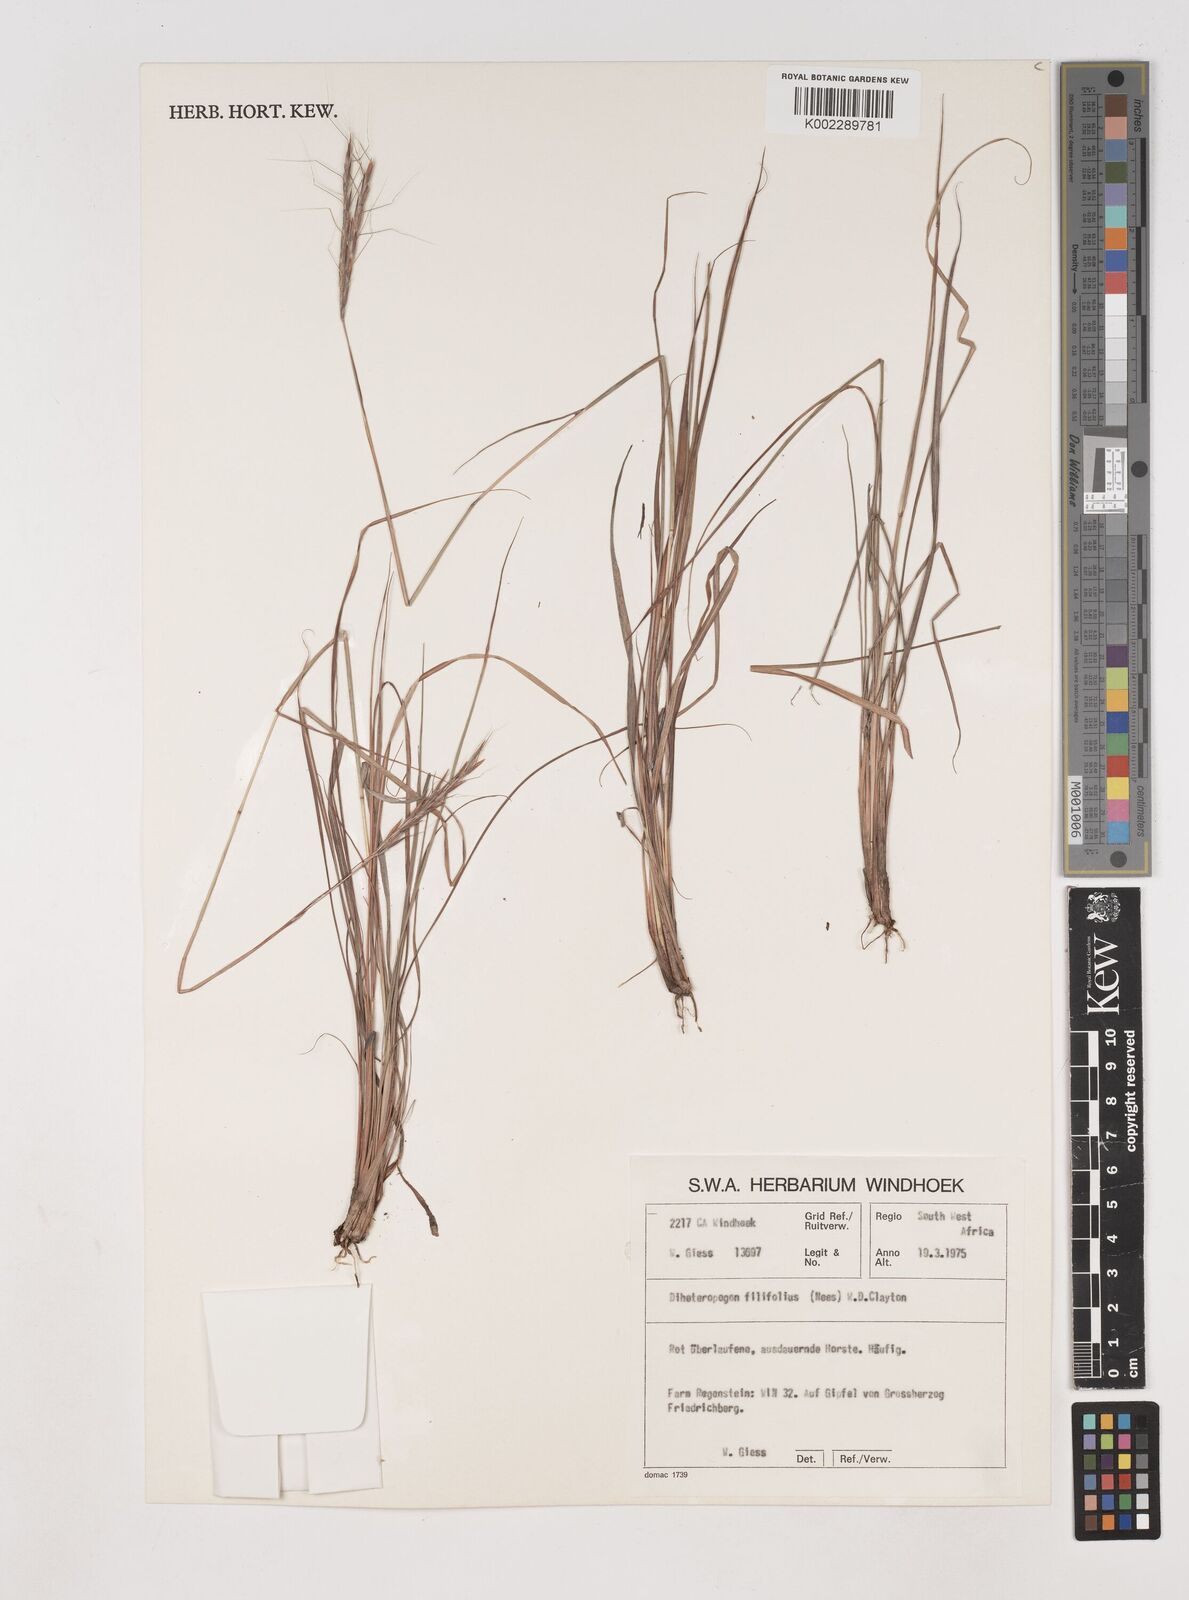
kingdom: Plantae
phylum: Tracheophyta
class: Liliopsida
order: Poales
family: Poaceae
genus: Diheteropogon
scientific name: Diheteropogon filifolius
